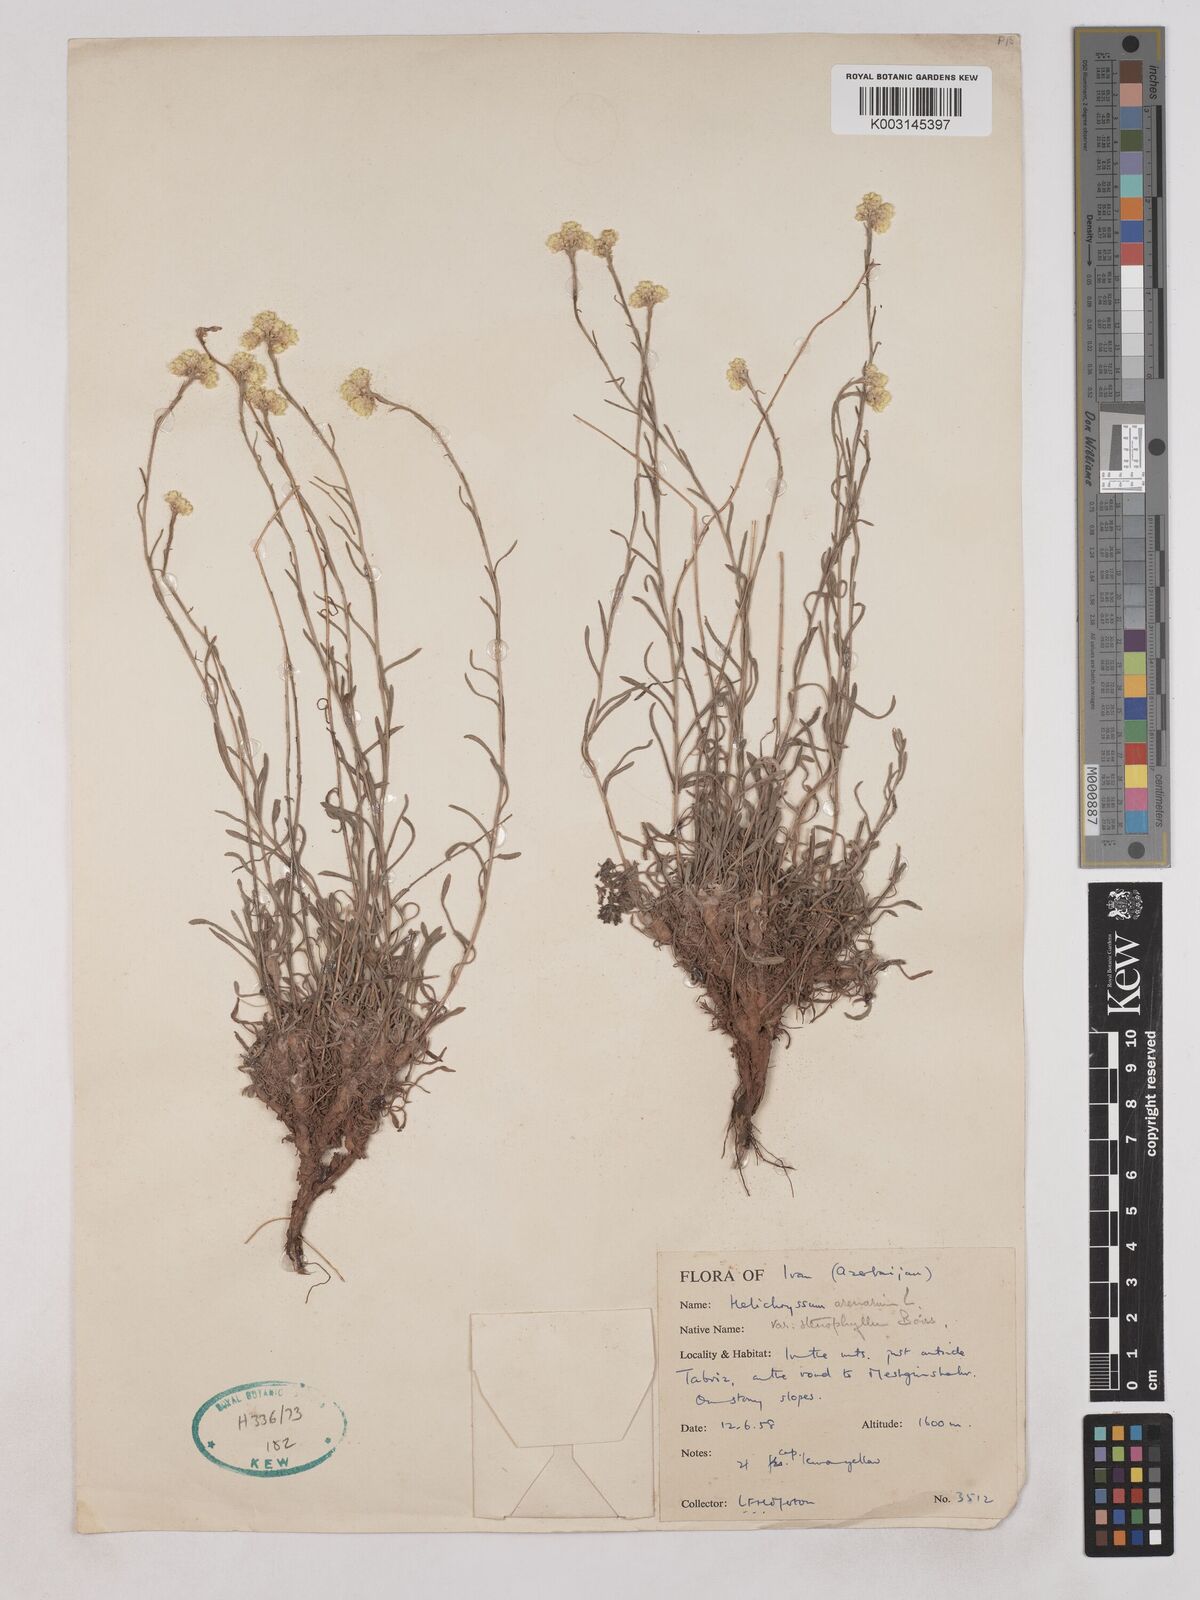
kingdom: Plantae
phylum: Tracheophyta
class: Magnoliopsida
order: Asterales
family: Asteraceae
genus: Helichrysum
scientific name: Helichrysum arenarium
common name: Strawflower
